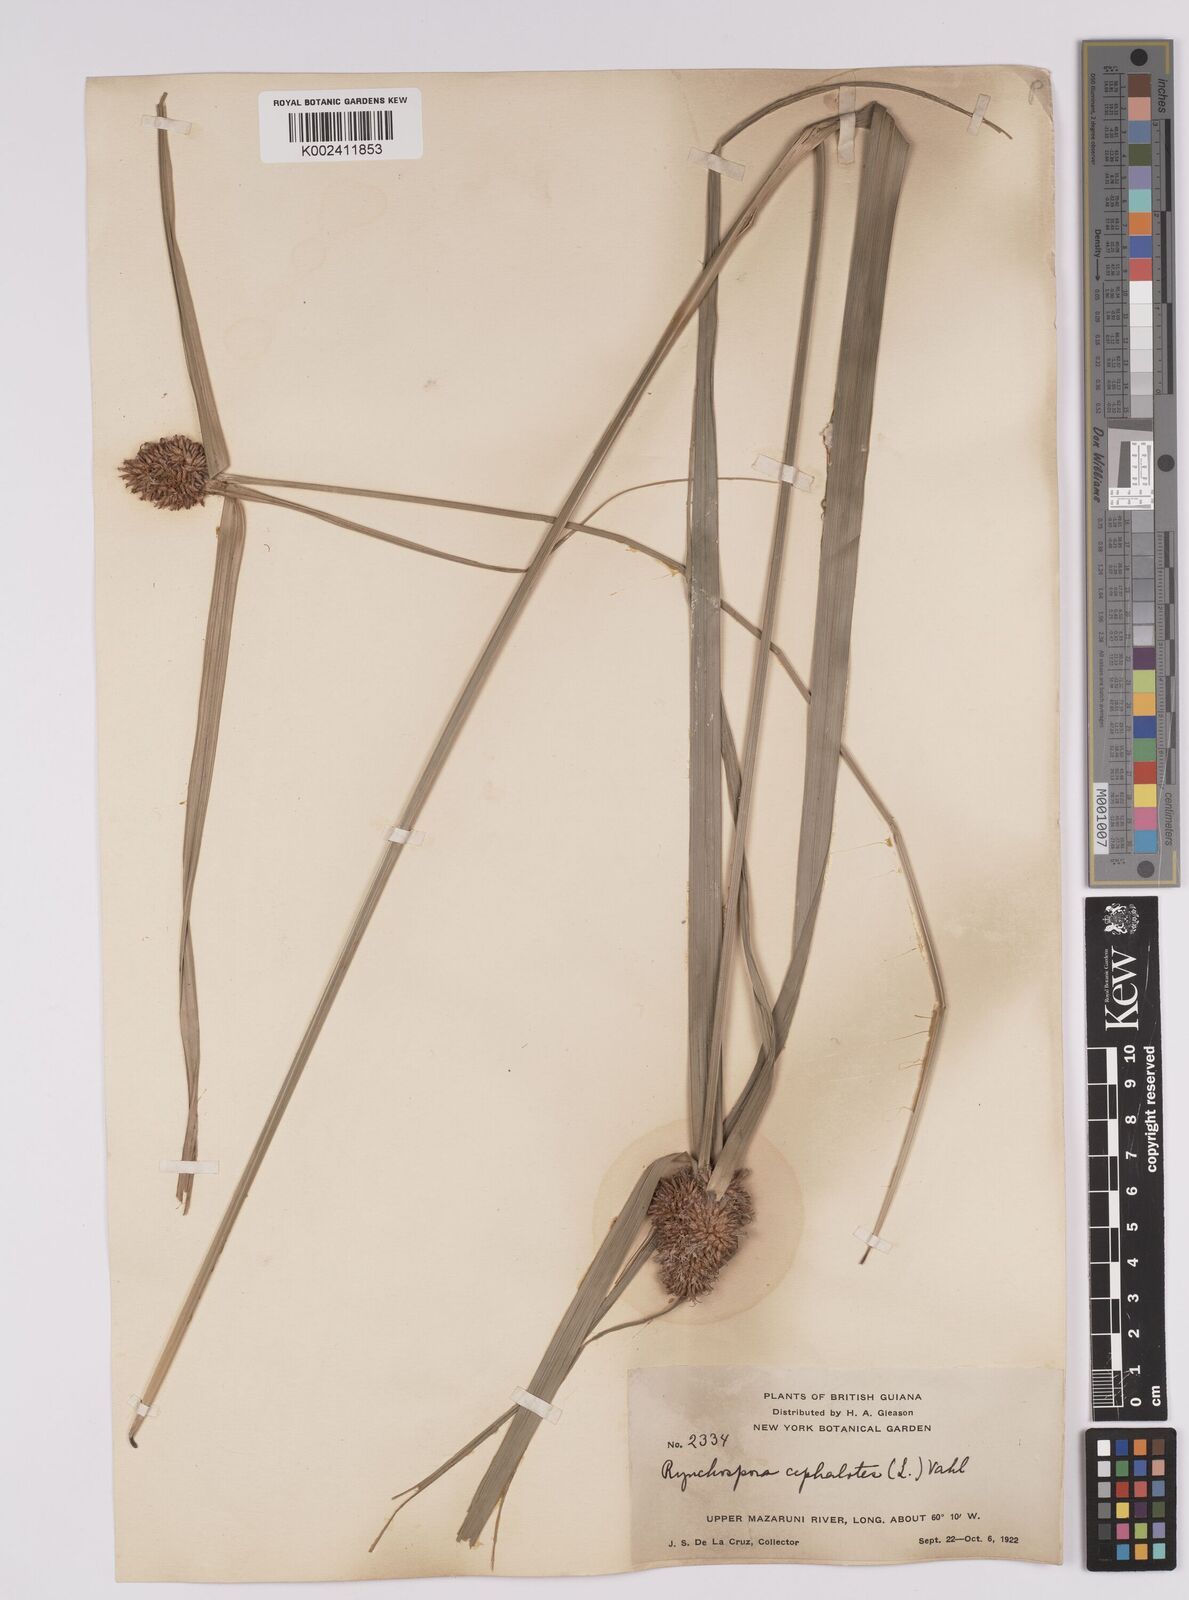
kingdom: Plantae
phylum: Tracheophyta
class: Liliopsida
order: Poales
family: Cyperaceae
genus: Rhynchospora
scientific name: Rhynchospora cephalotes
